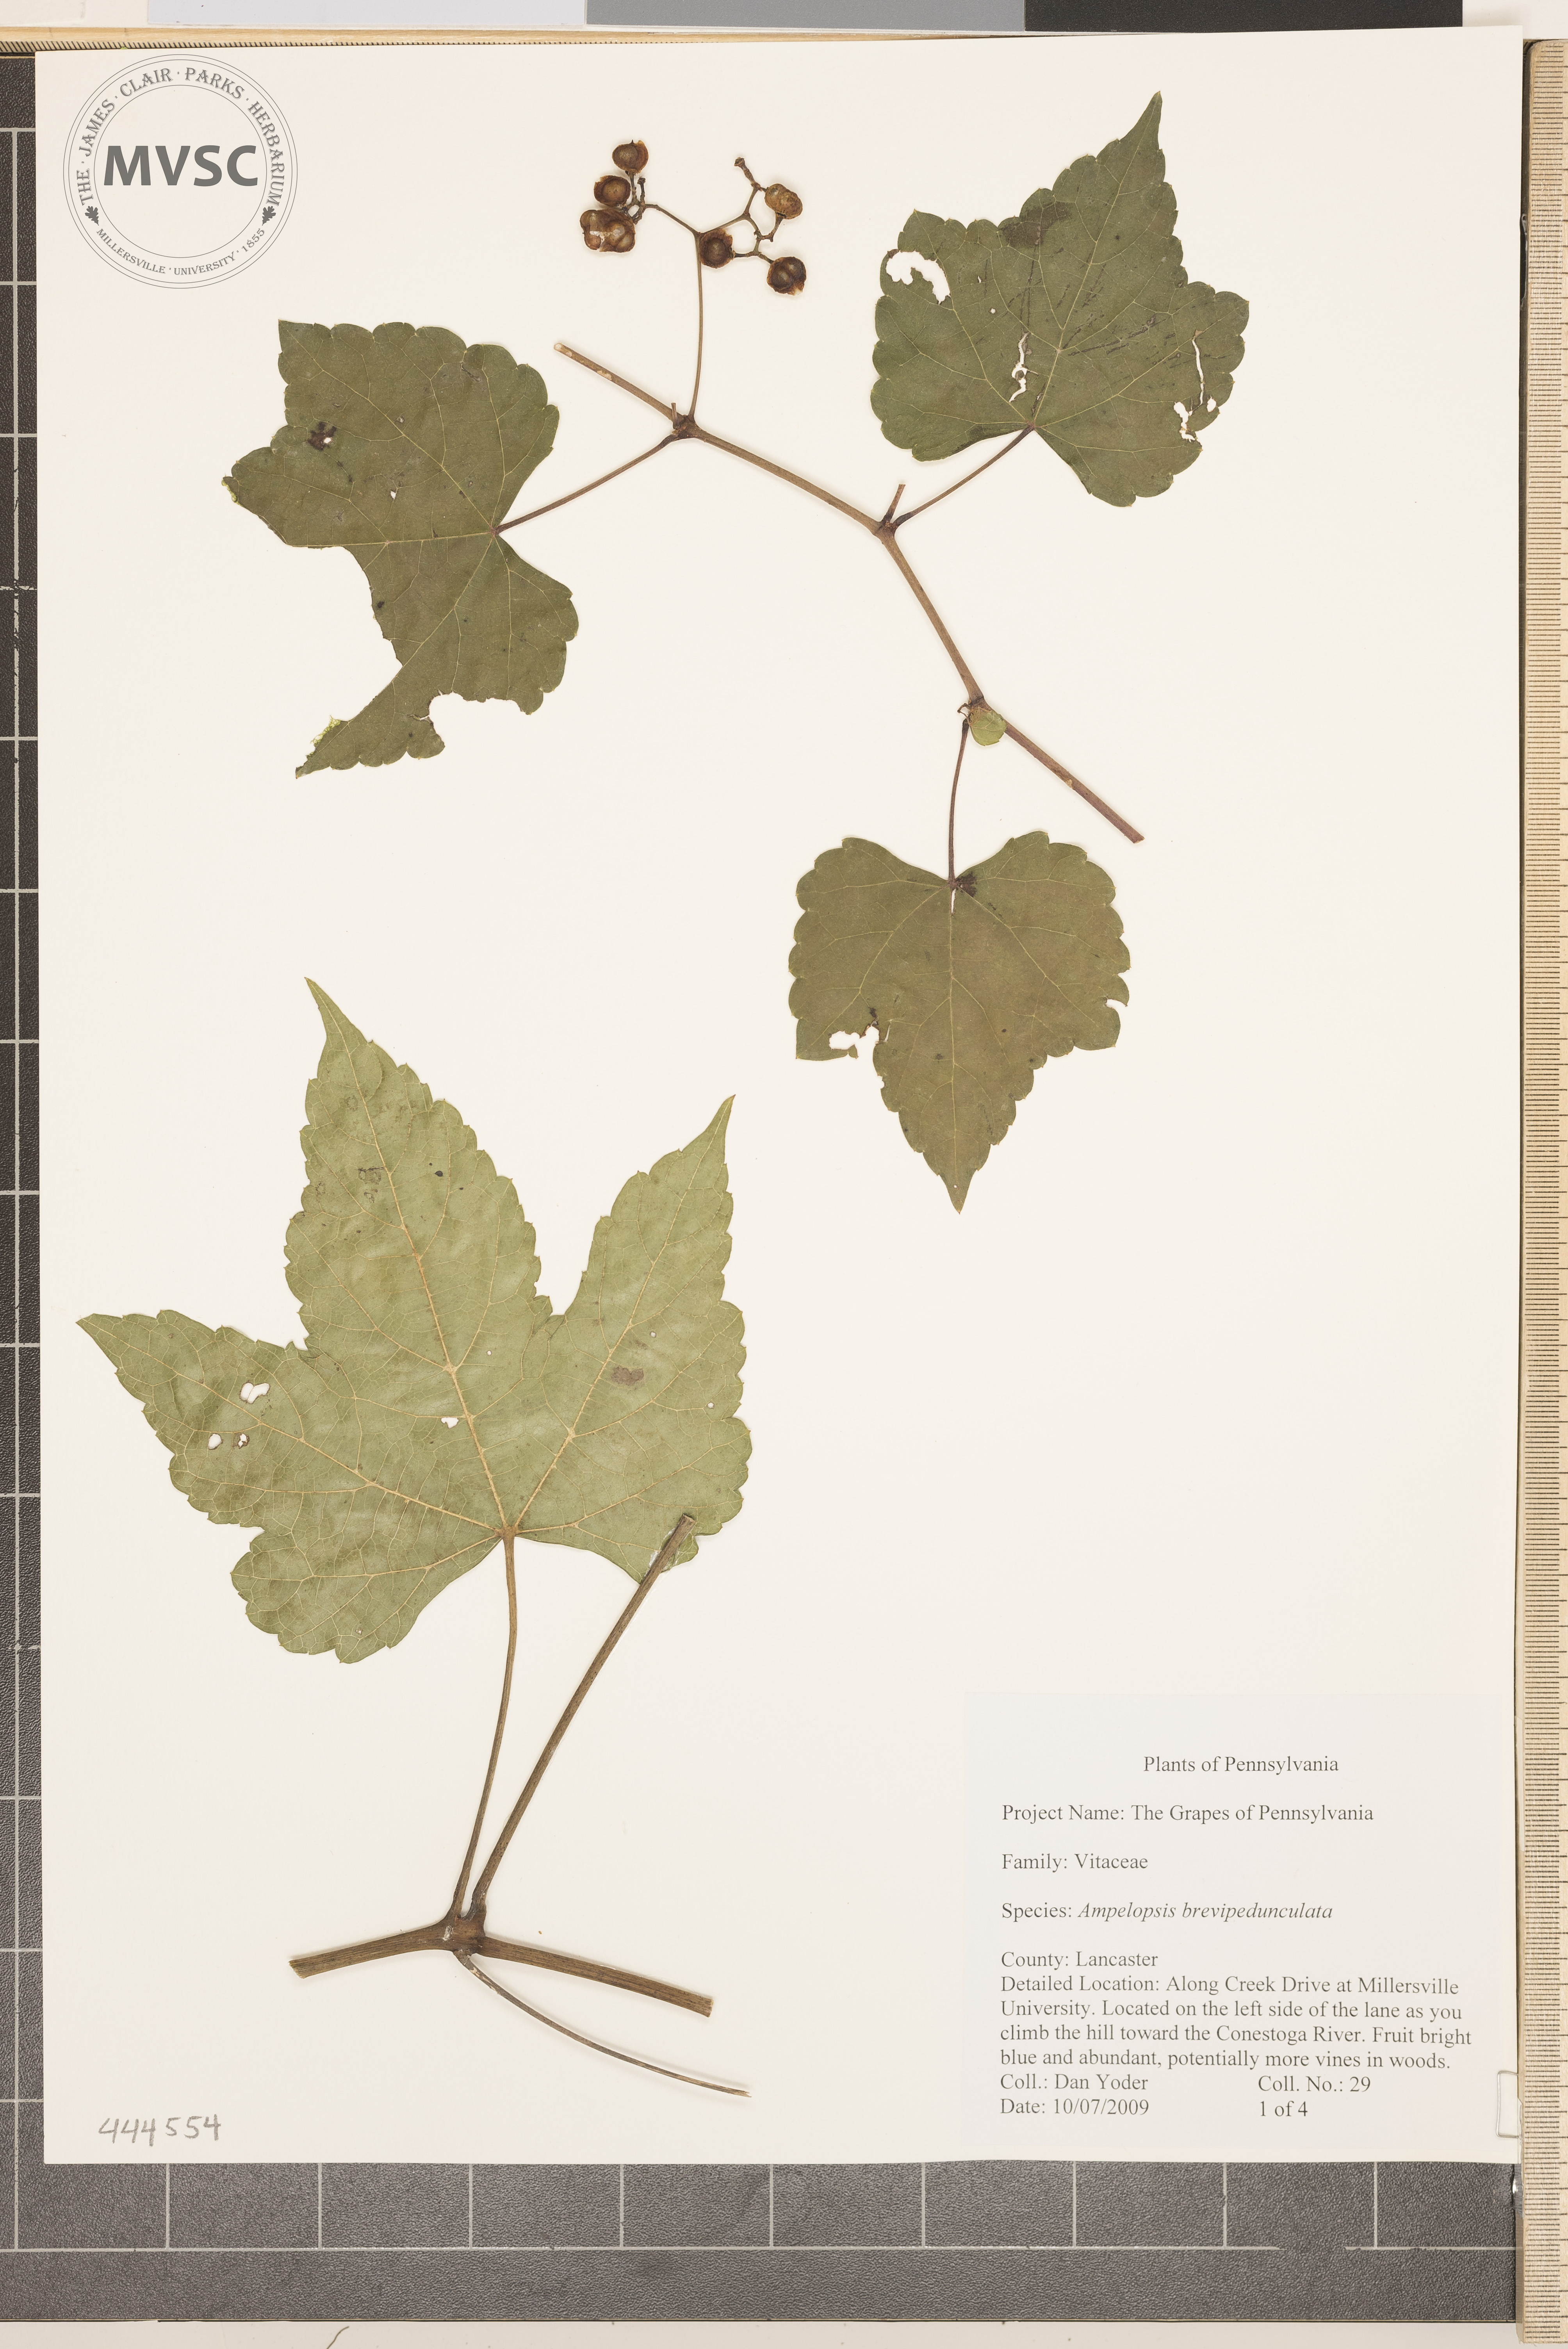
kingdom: Plantae
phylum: Tracheophyta
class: Magnoliopsida
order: Vitales
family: Vitaceae
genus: Ampelopsis
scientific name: Ampelopsis brevipedunculata
